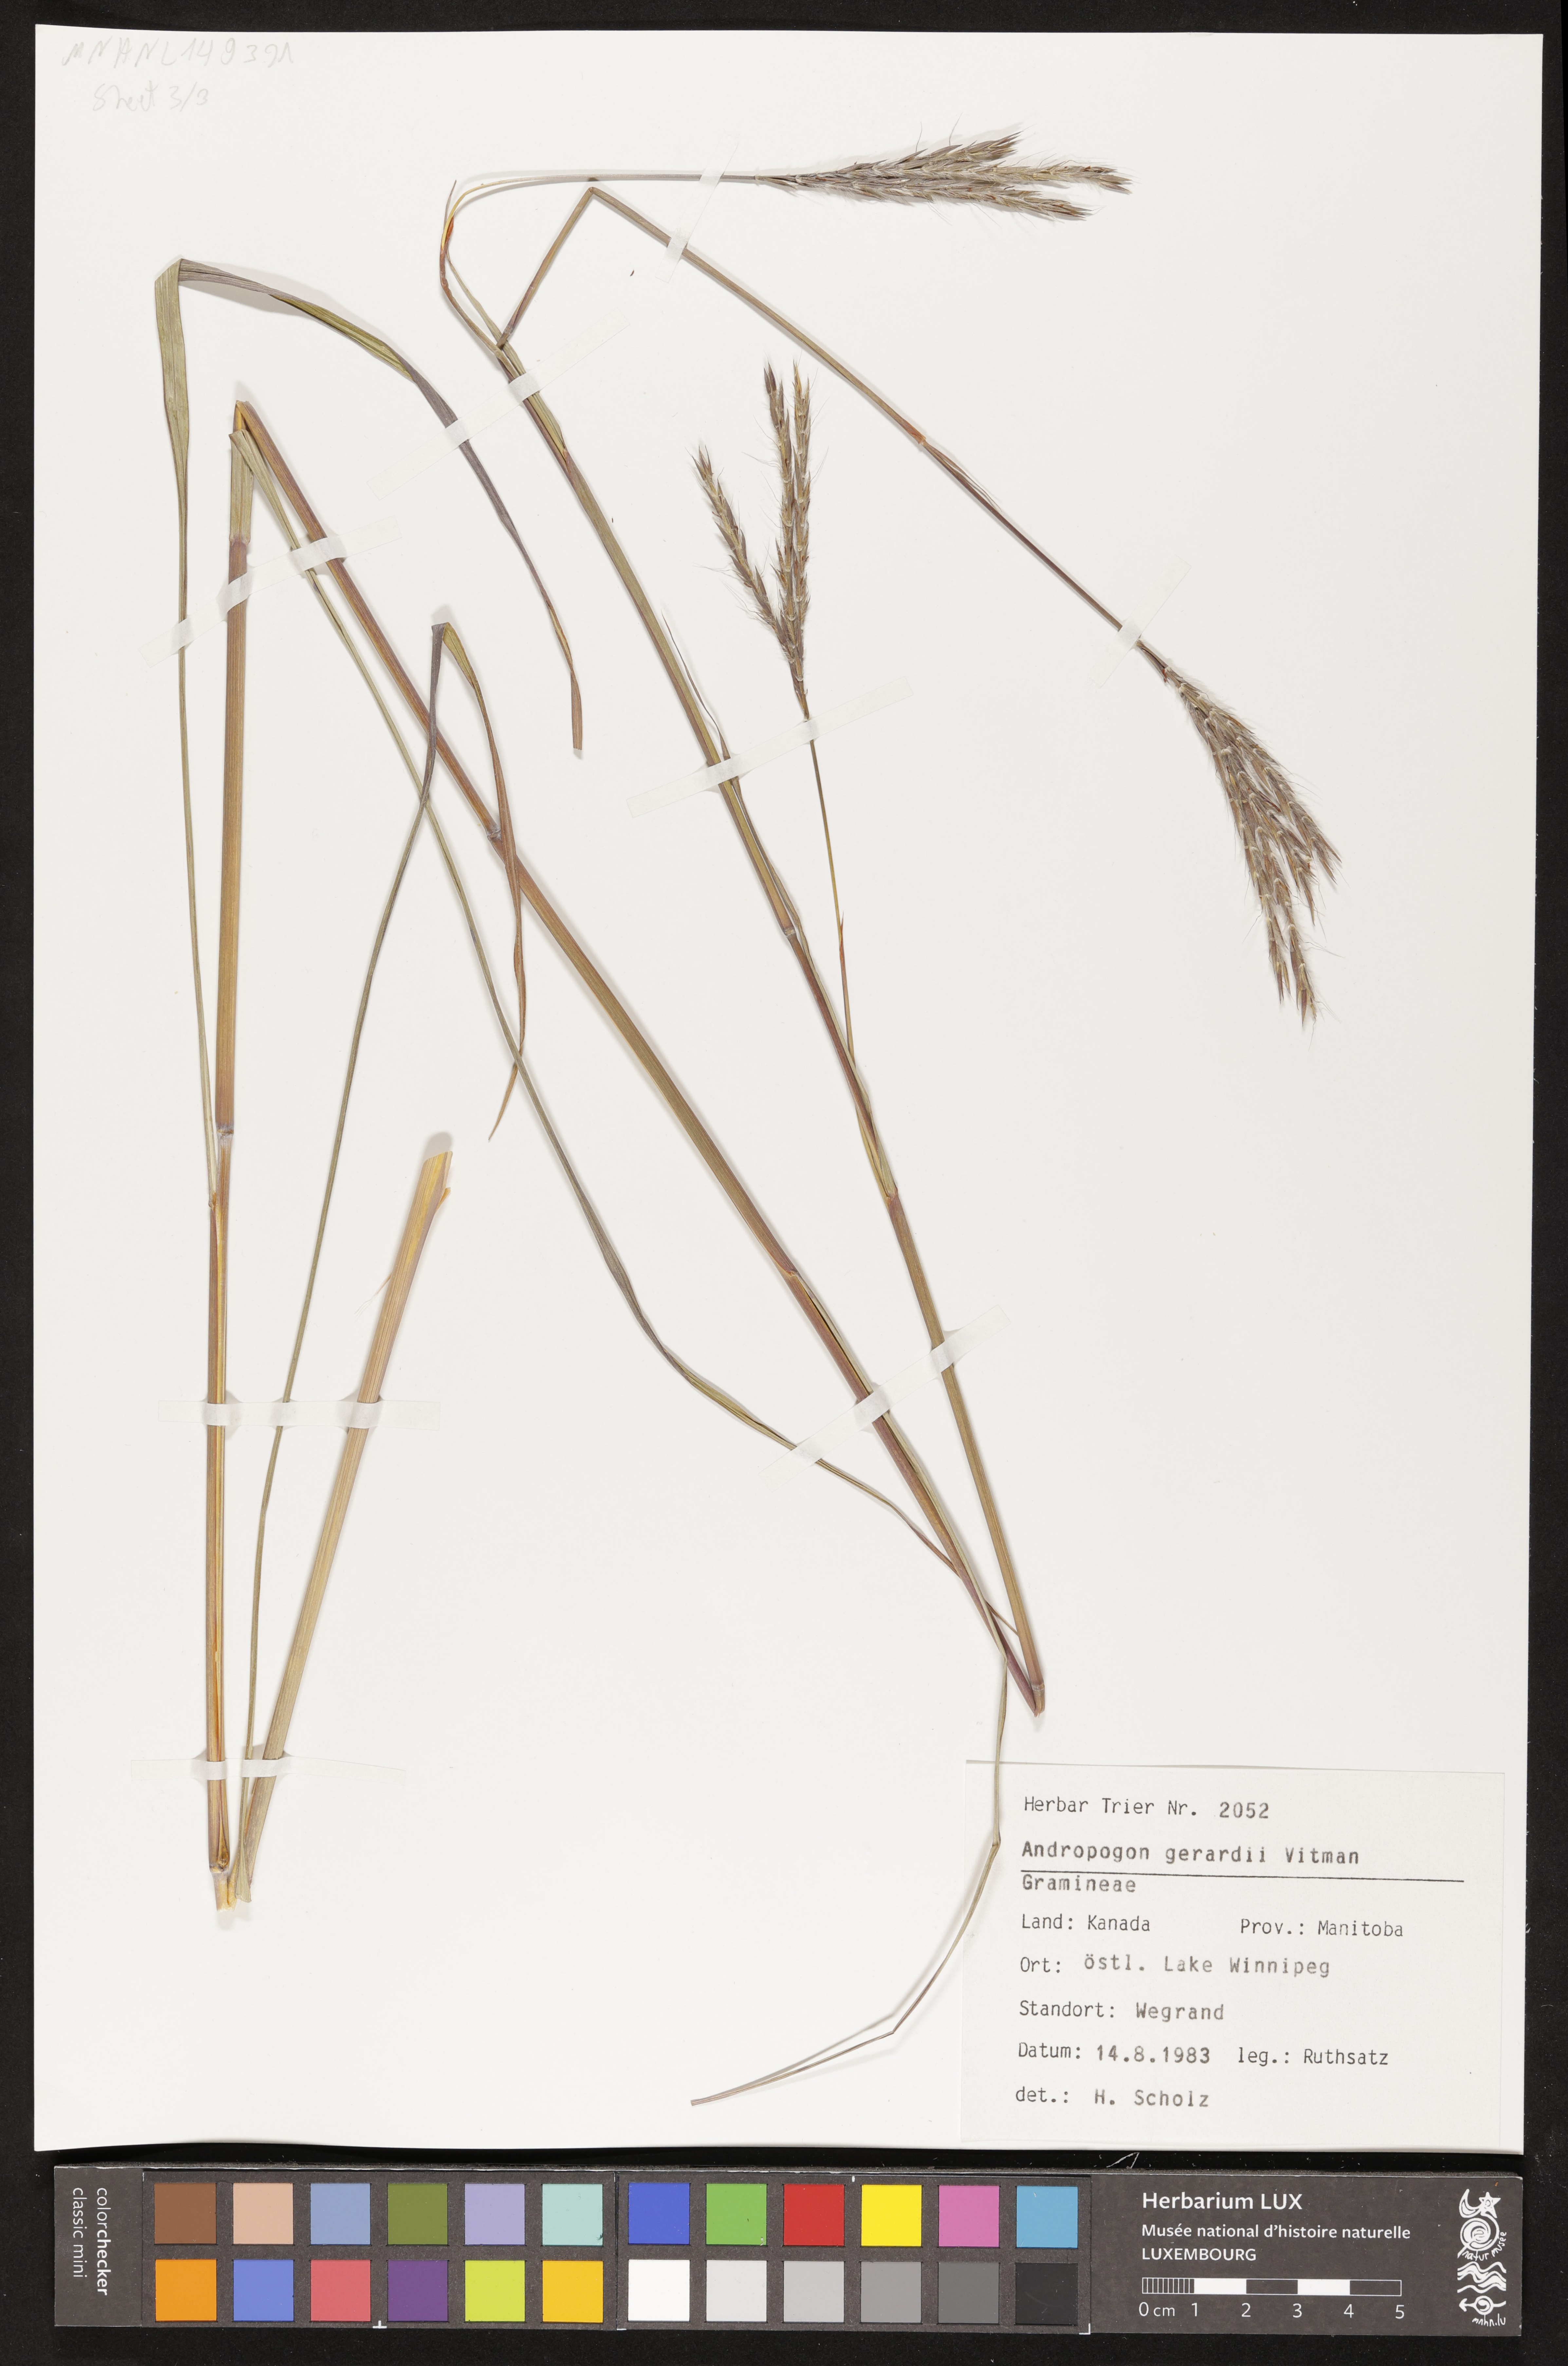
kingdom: Plantae
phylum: Tracheophyta
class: Liliopsida
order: Poales
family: Poaceae
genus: Andropogon
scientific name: Andropogon gerardi
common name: Big bluestem
